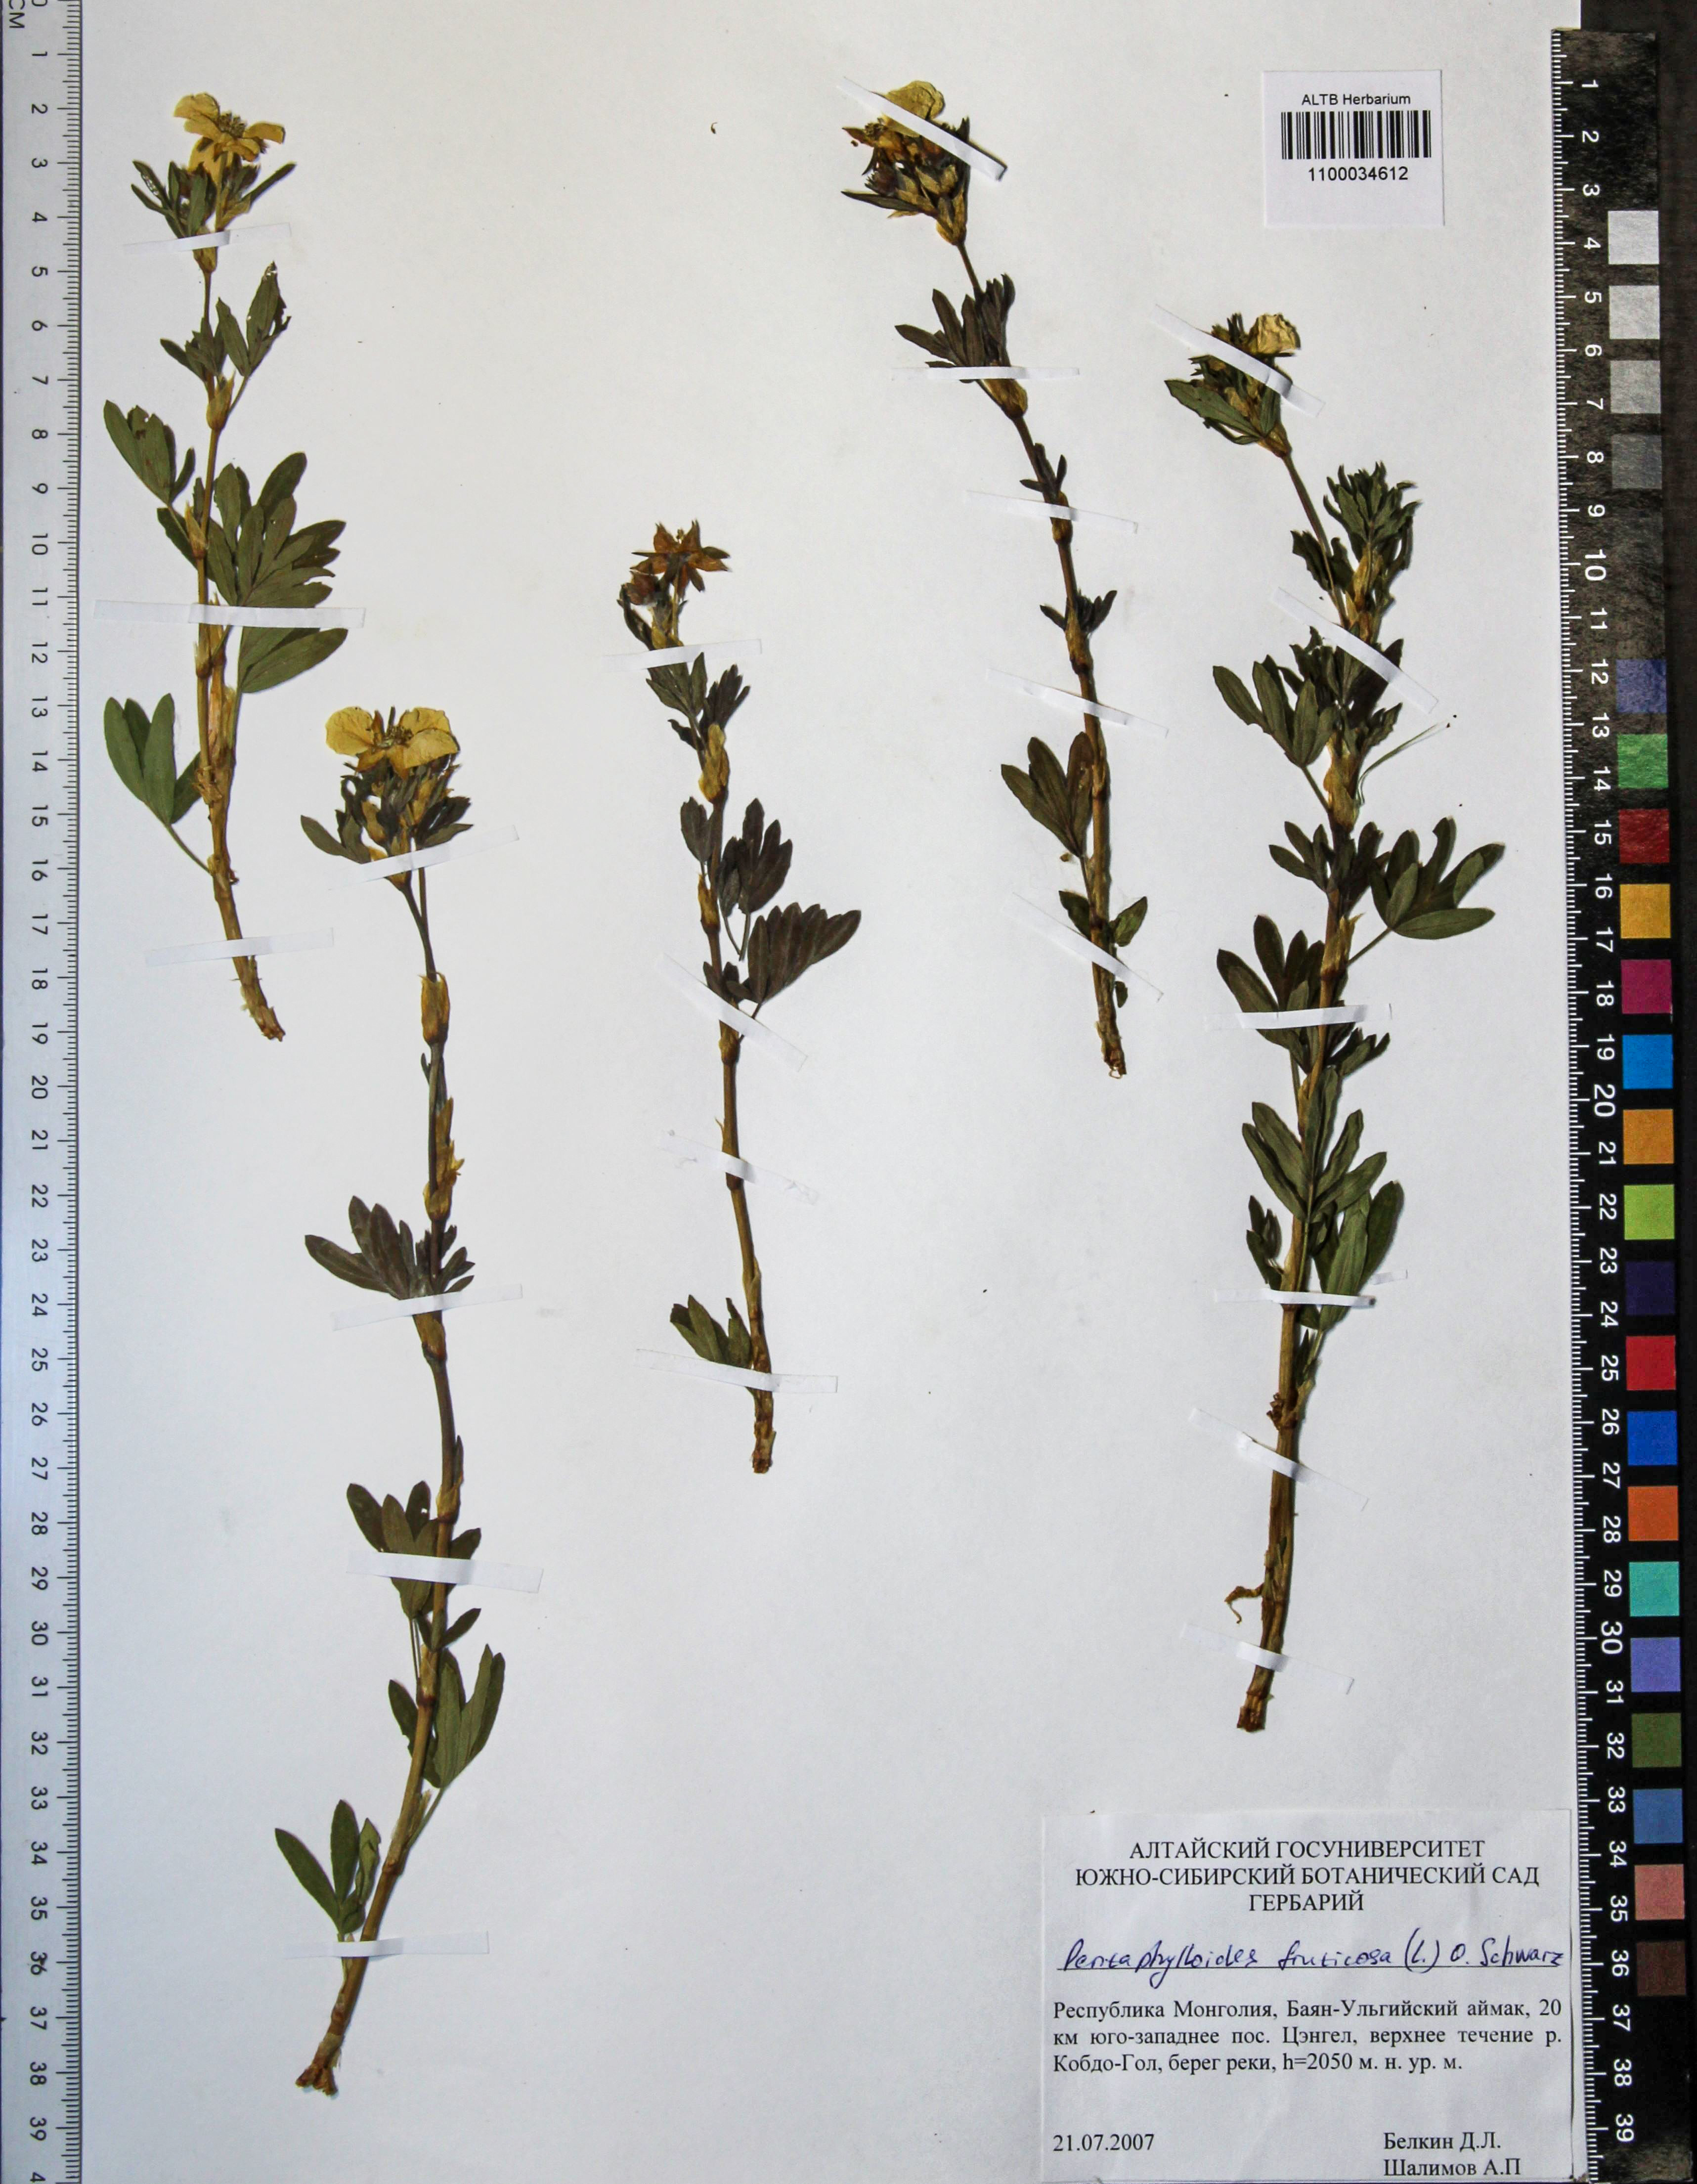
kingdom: Plantae
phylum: Tracheophyta
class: Magnoliopsida
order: Rosales
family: Rosaceae
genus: Dasiphora
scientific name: Dasiphora fruticosa
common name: Shrubby cinquefoil
